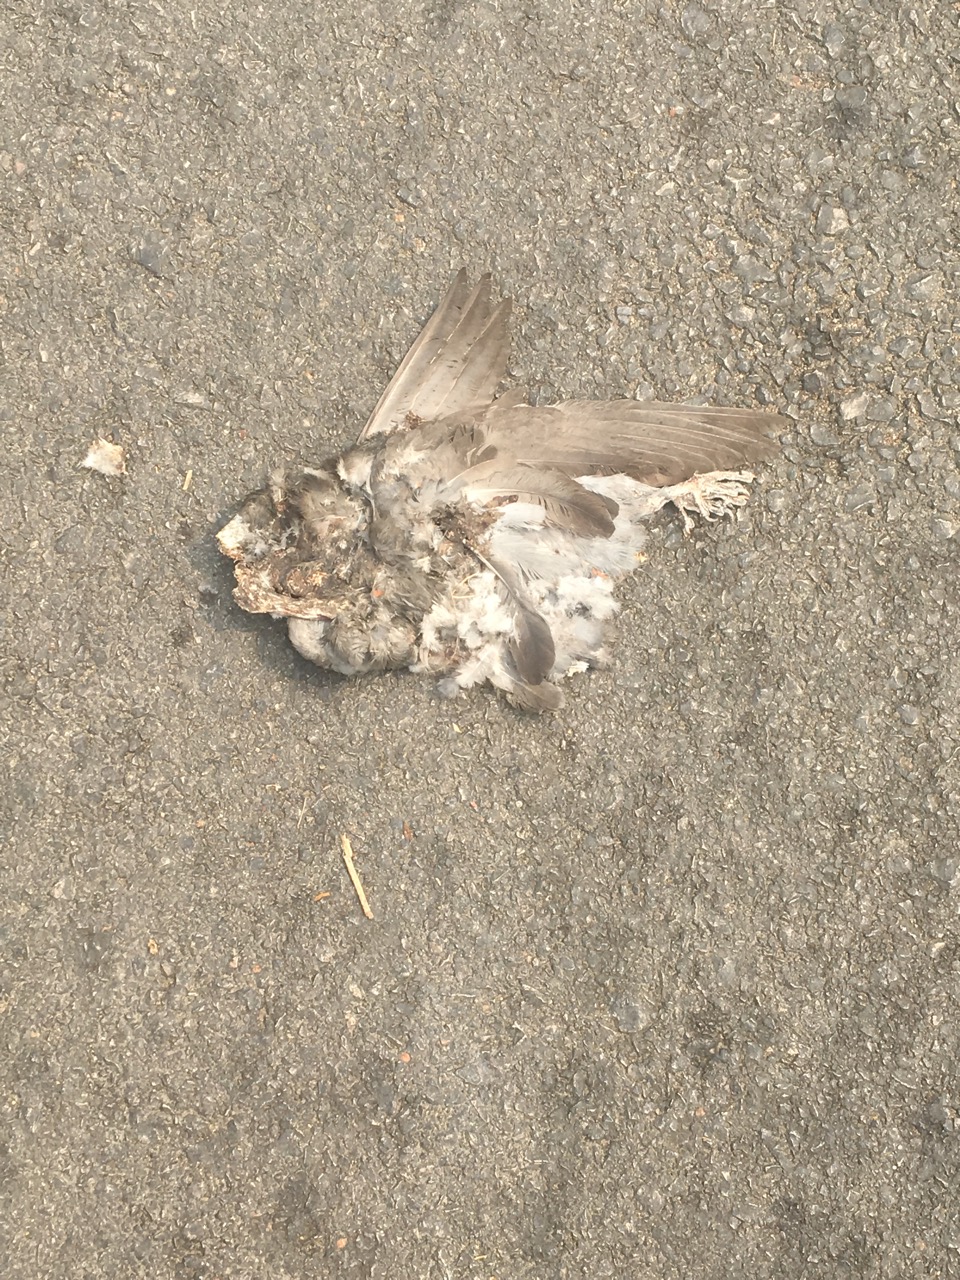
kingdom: Animalia
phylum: Chordata
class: Aves
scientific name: Aves
